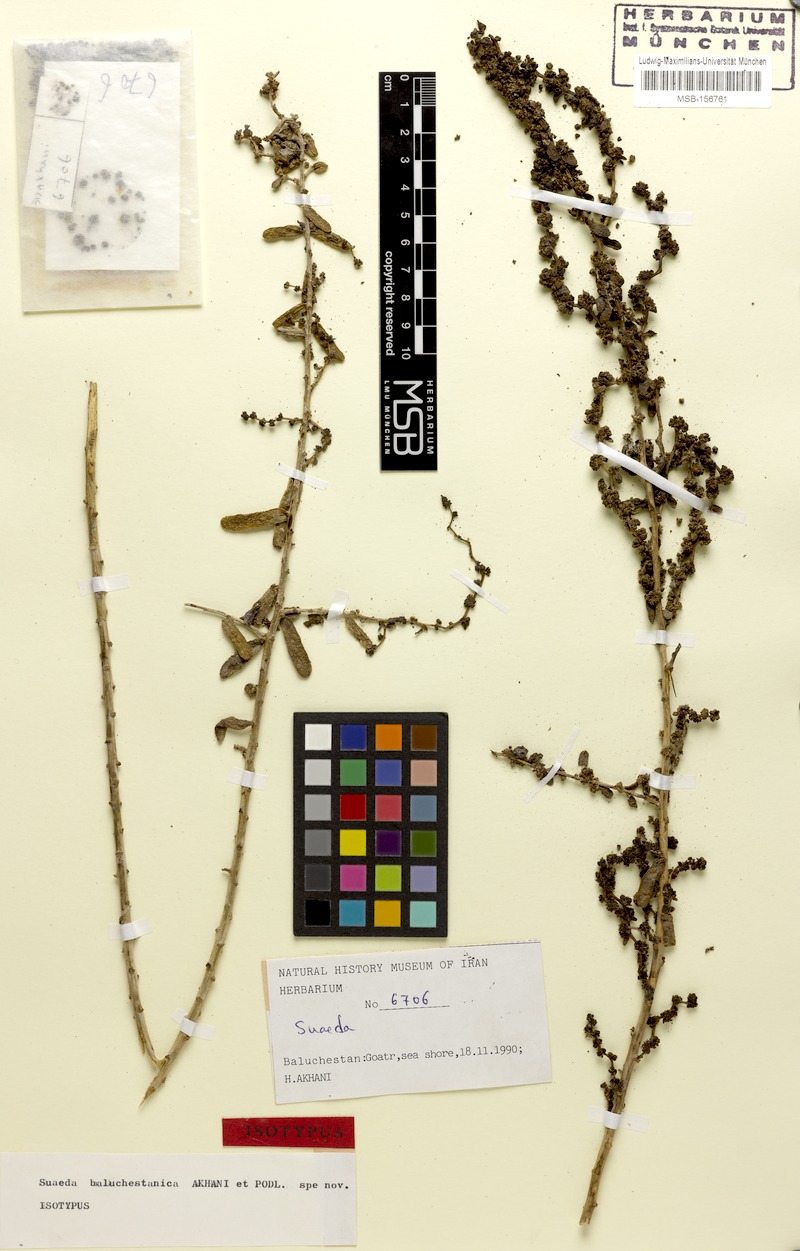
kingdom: Plantae
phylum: Tracheophyta
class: Magnoliopsida
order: Caryophyllales
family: Amaranthaceae
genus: Suaeda
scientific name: Suaeda monoica
